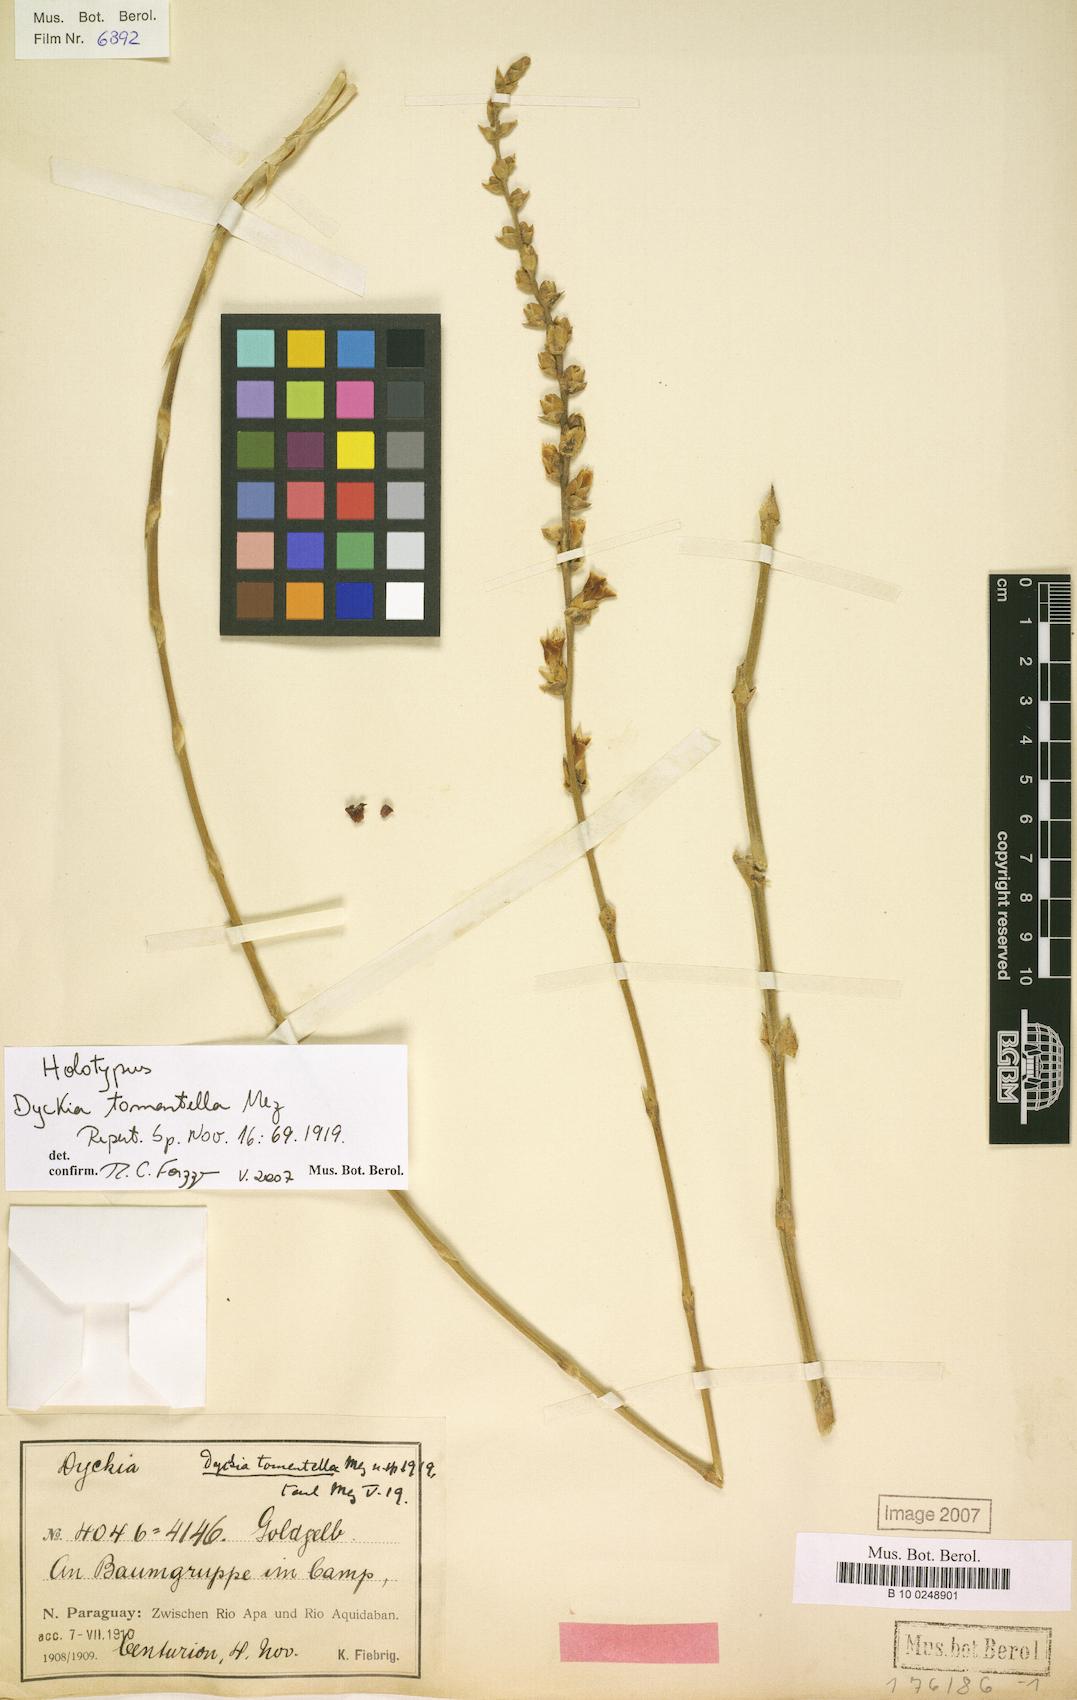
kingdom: Plantae
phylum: Tracheophyta
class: Liliopsida
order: Poales
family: Bromeliaceae
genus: Dyckia
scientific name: Dyckia tomentella
